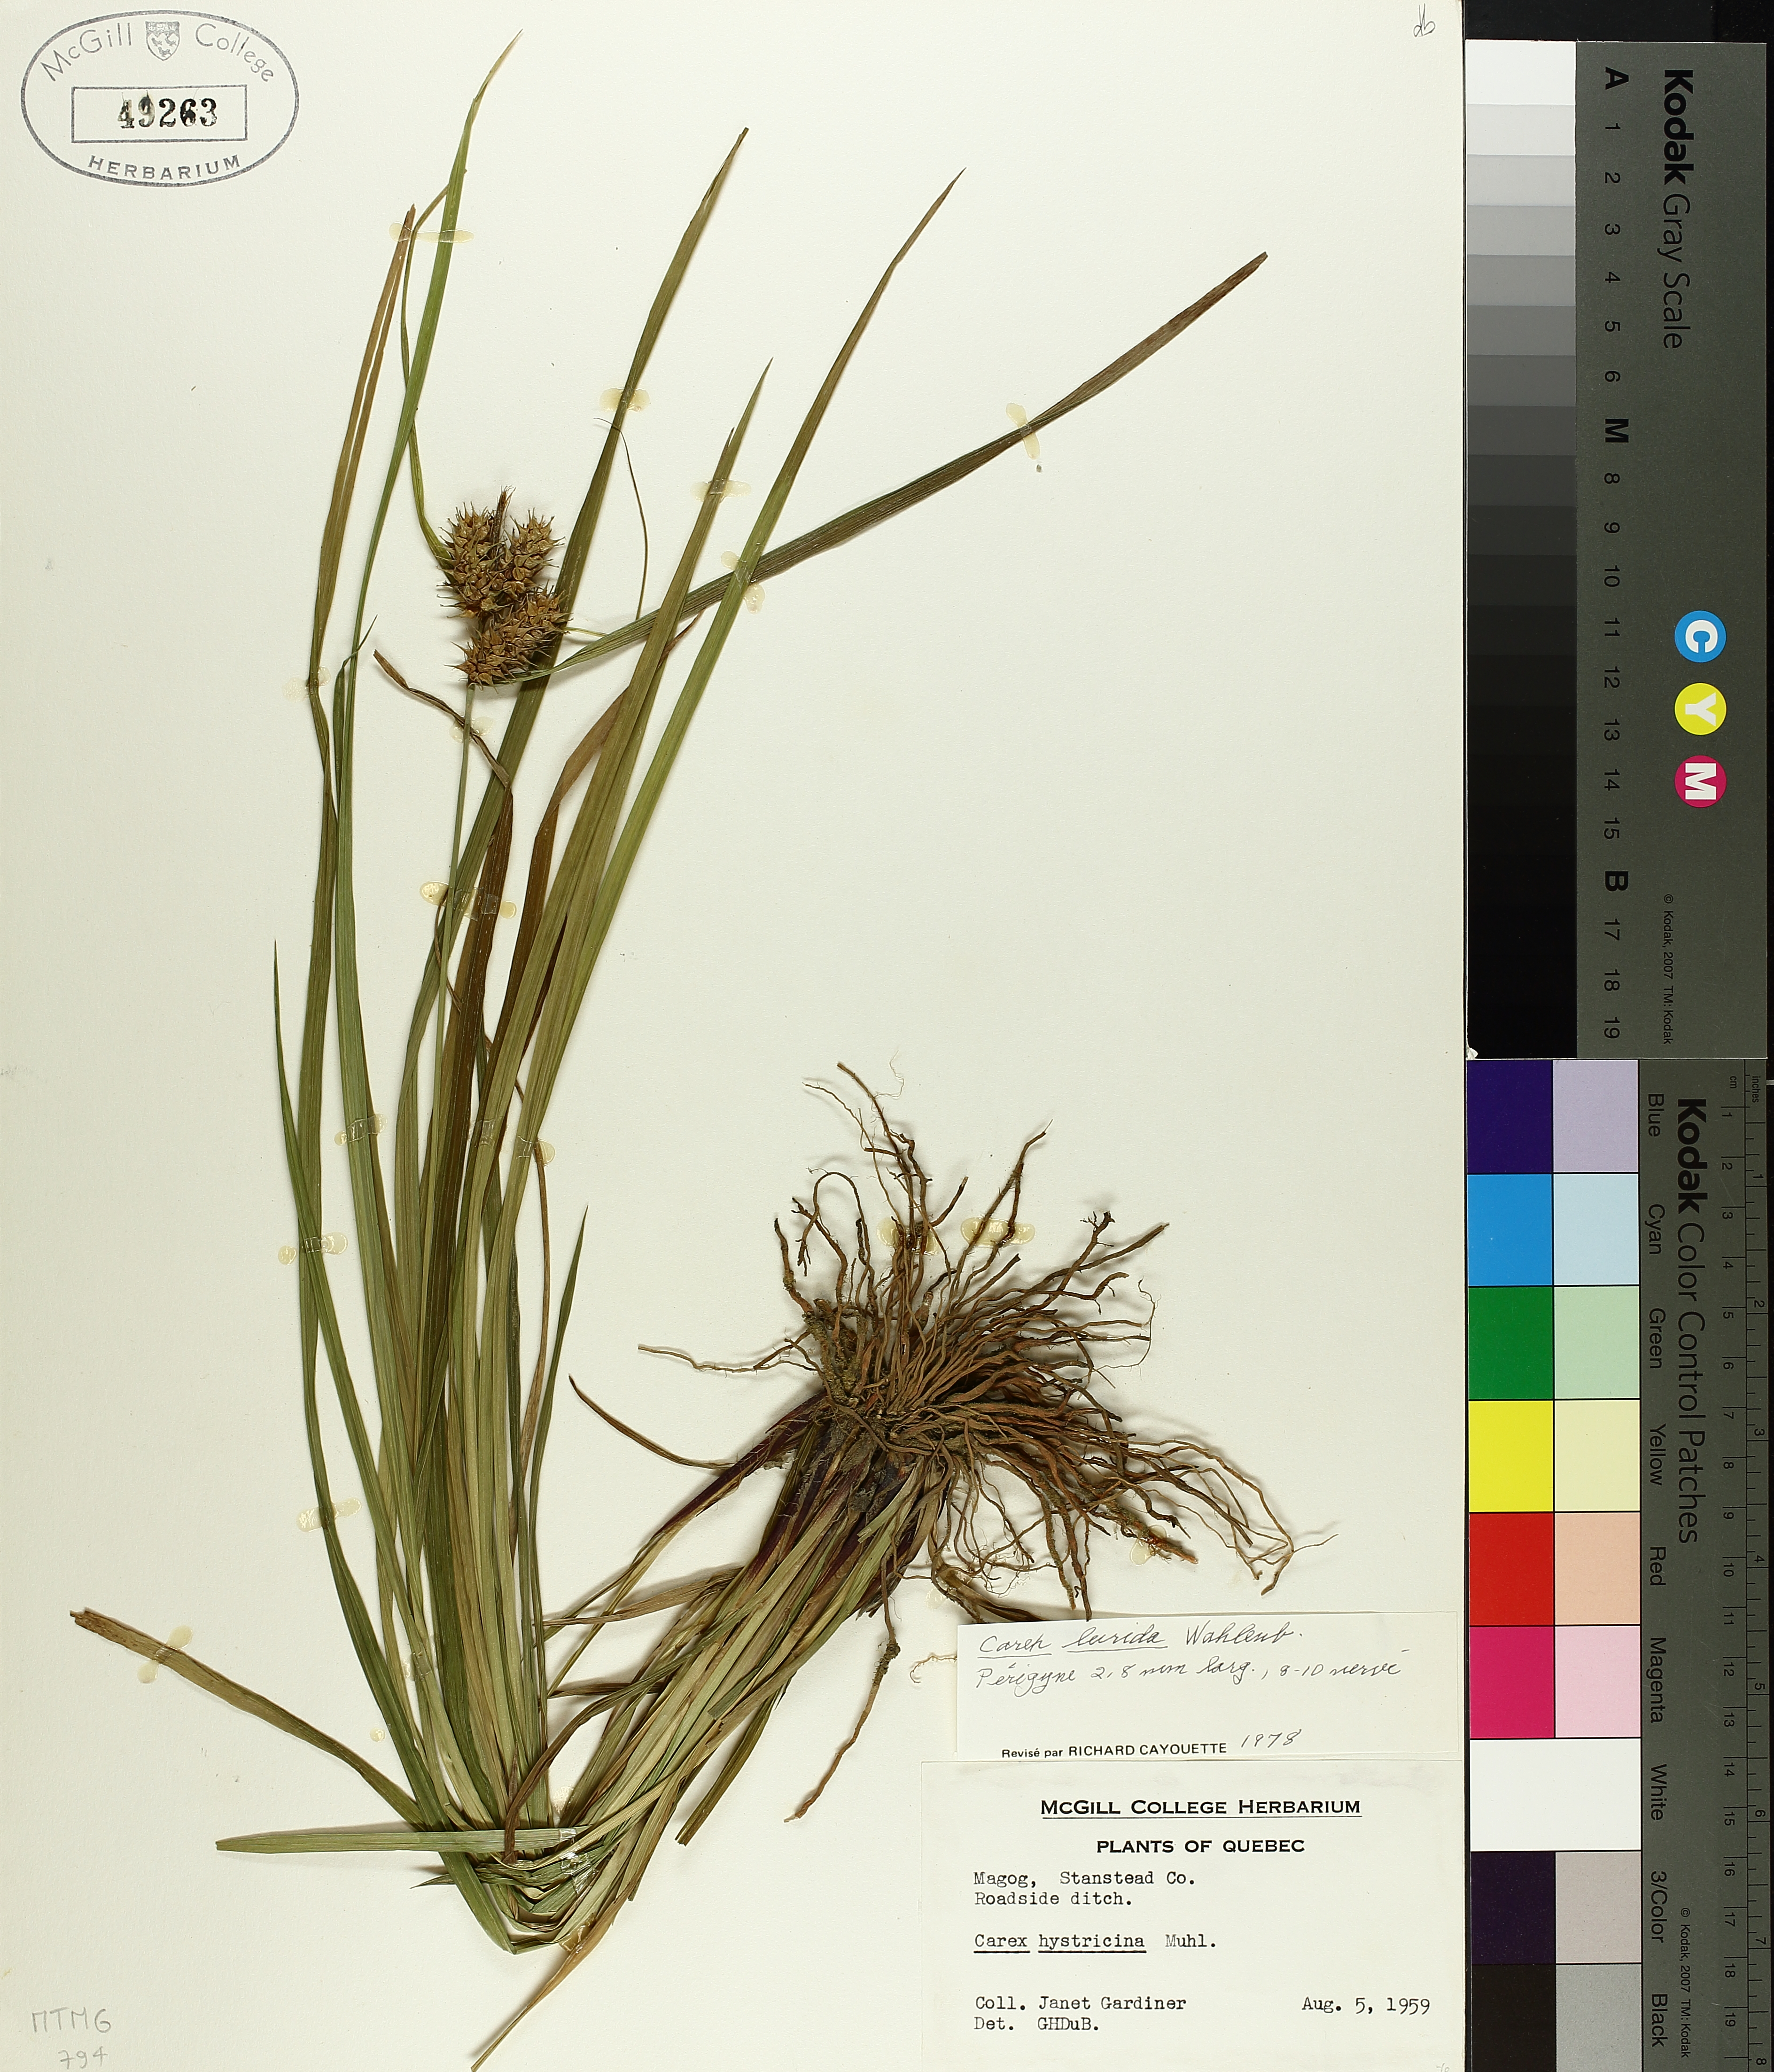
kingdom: Plantae
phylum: Tracheophyta
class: Liliopsida
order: Poales
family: Cyperaceae
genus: Carex
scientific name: Carex lurida
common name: Sallow sedge
